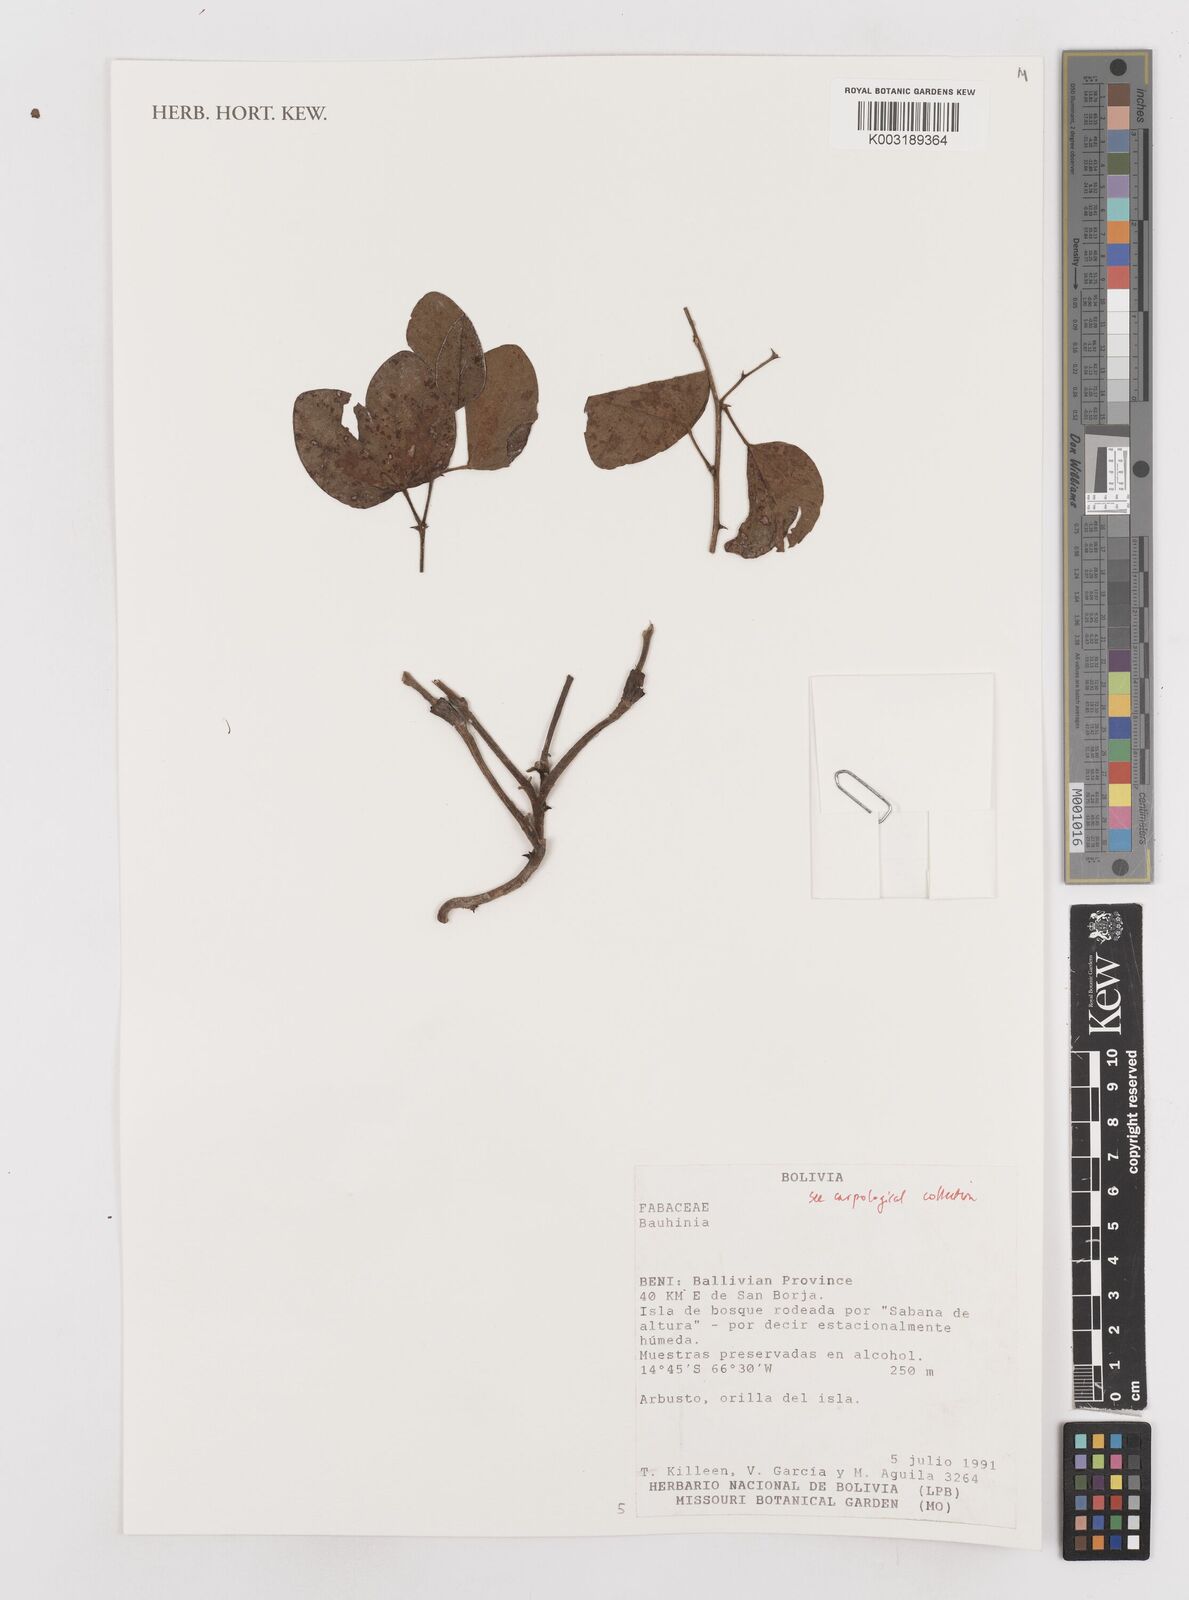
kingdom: Plantae
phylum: Tracheophyta
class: Magnoliopsida
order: Fabales
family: Fabaceae
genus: Bauhinia
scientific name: Bauhinia
